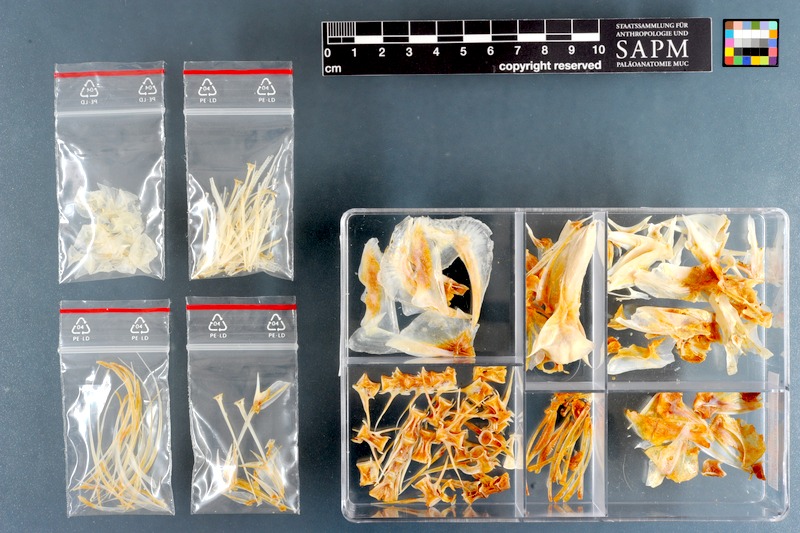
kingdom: Animalia
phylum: Chordata
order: Perciformes
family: Carangidae
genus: Trachurus
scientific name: Trachurus trachurus
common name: Horse mackerel
